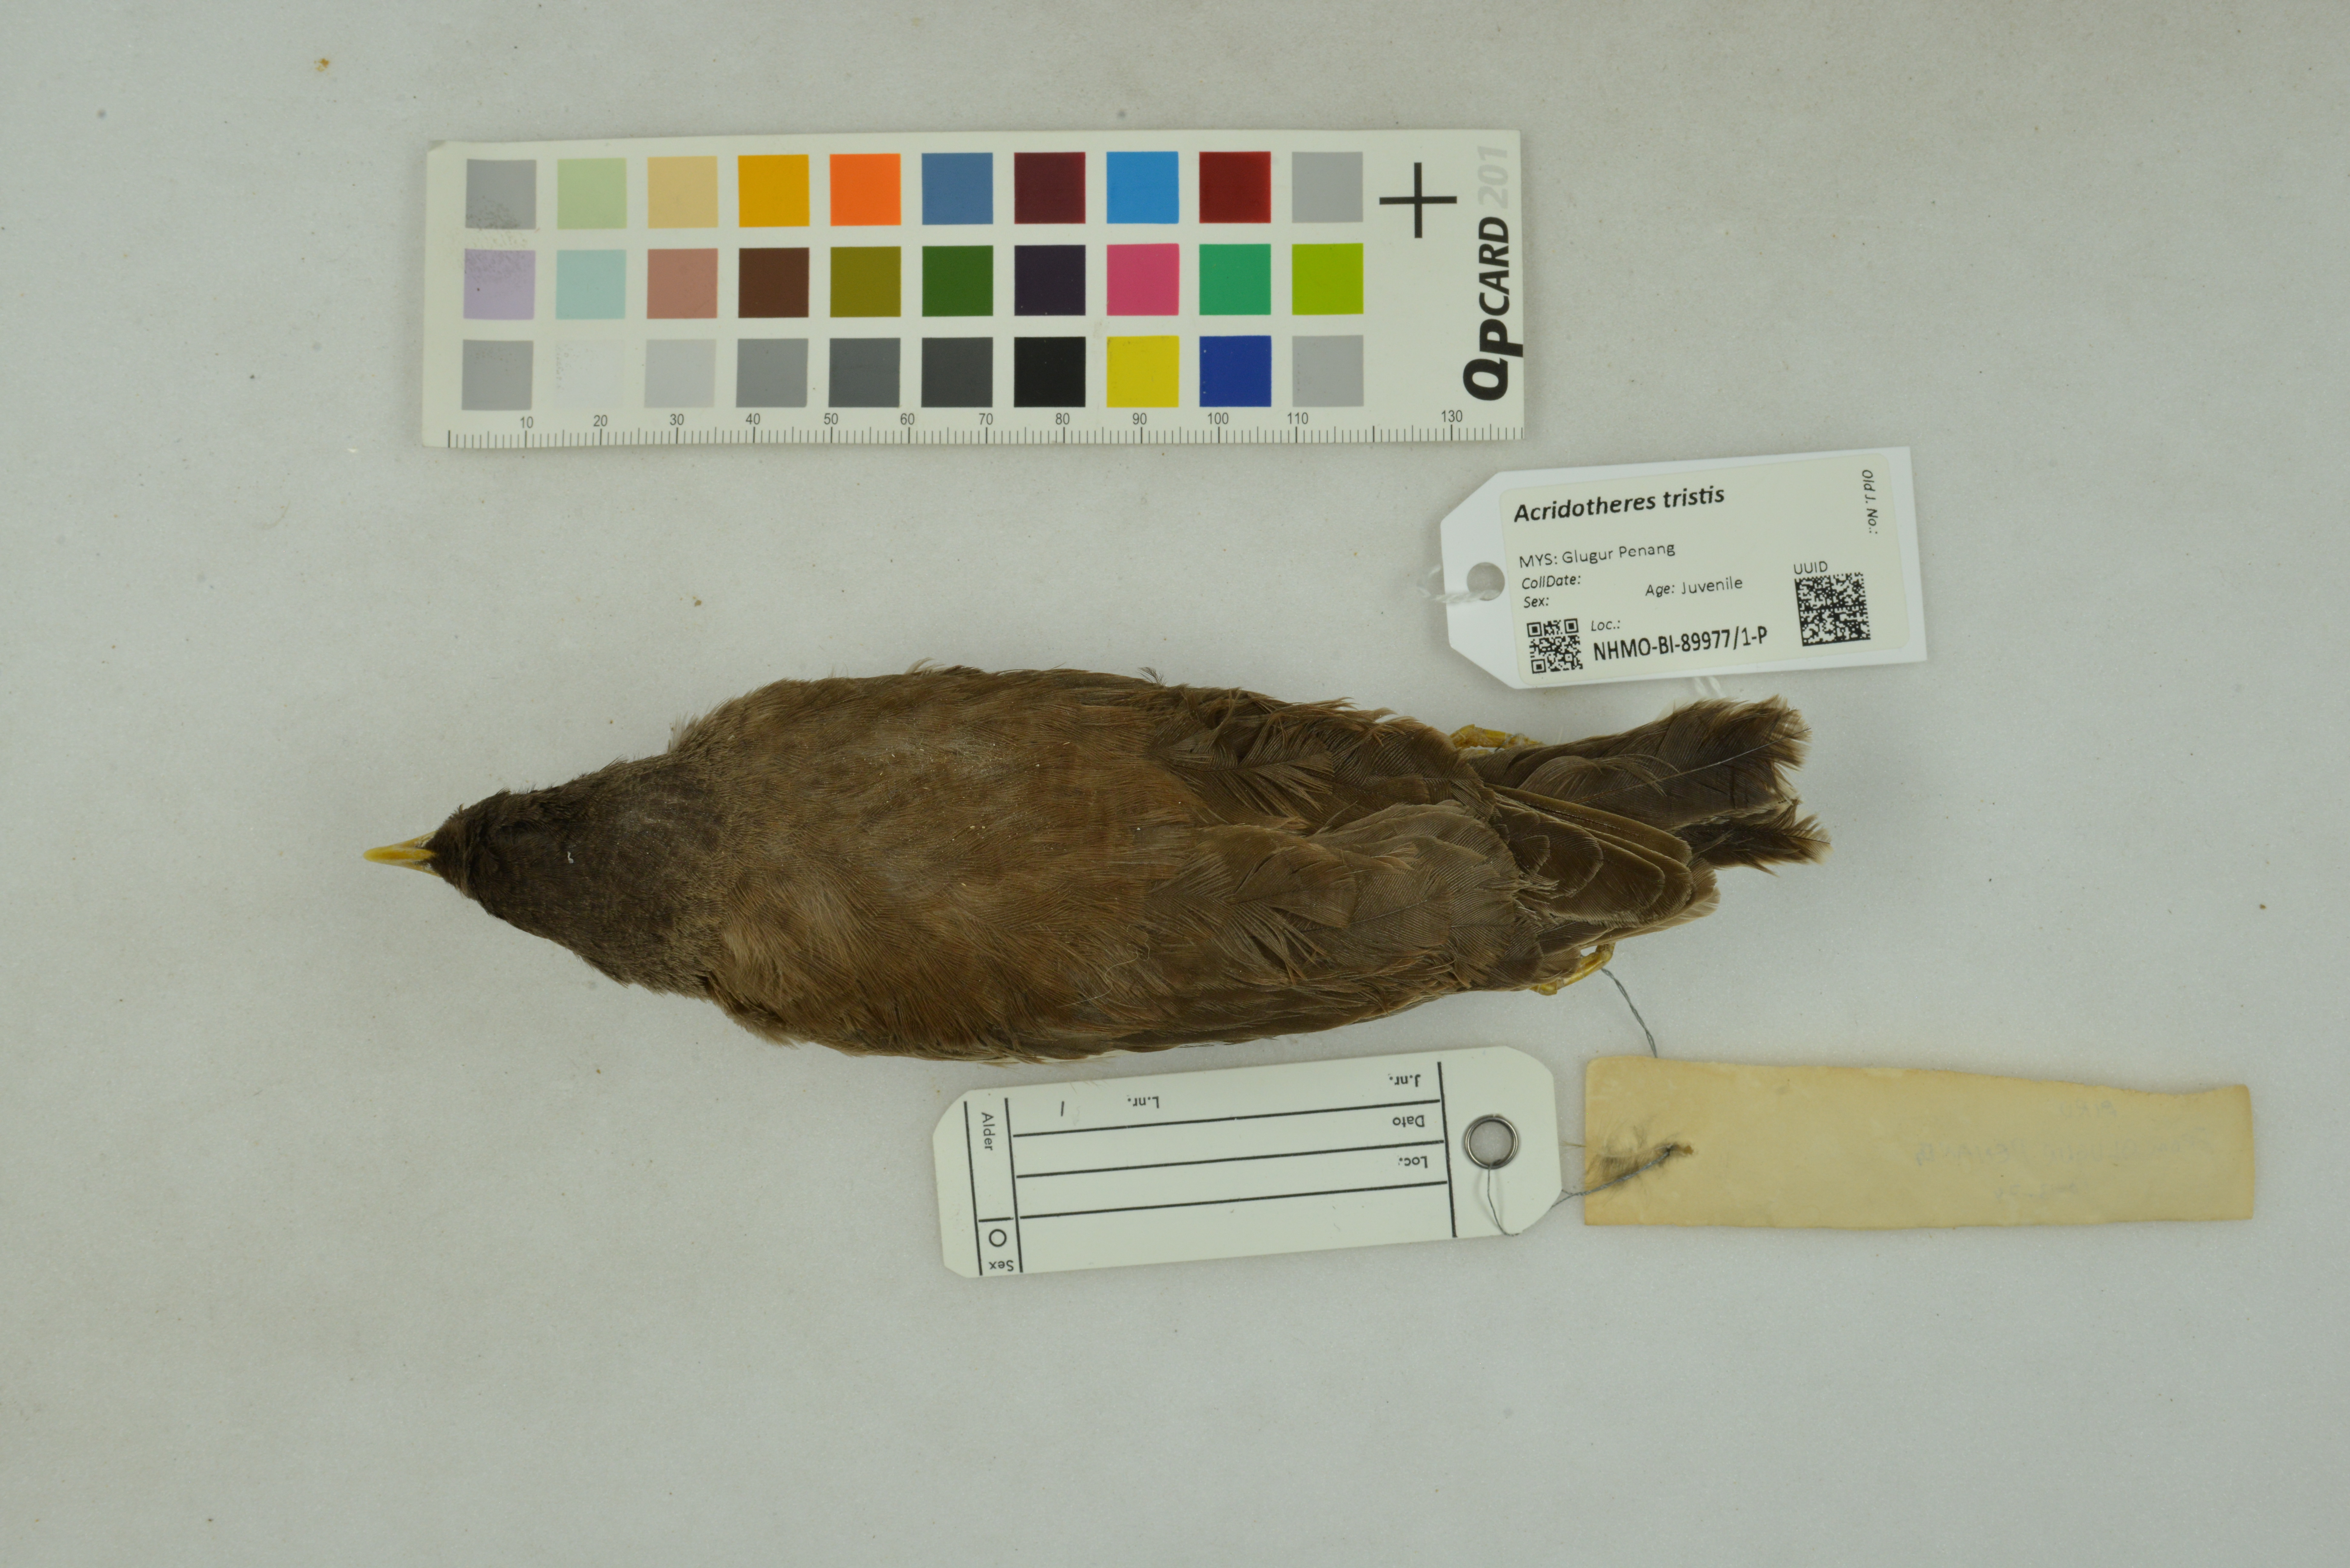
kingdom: Animalia
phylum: Chordata
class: Aves
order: Passeriformes
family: Sturnidae
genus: Acridotheres
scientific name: Acridotheres tristis
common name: Common myna
